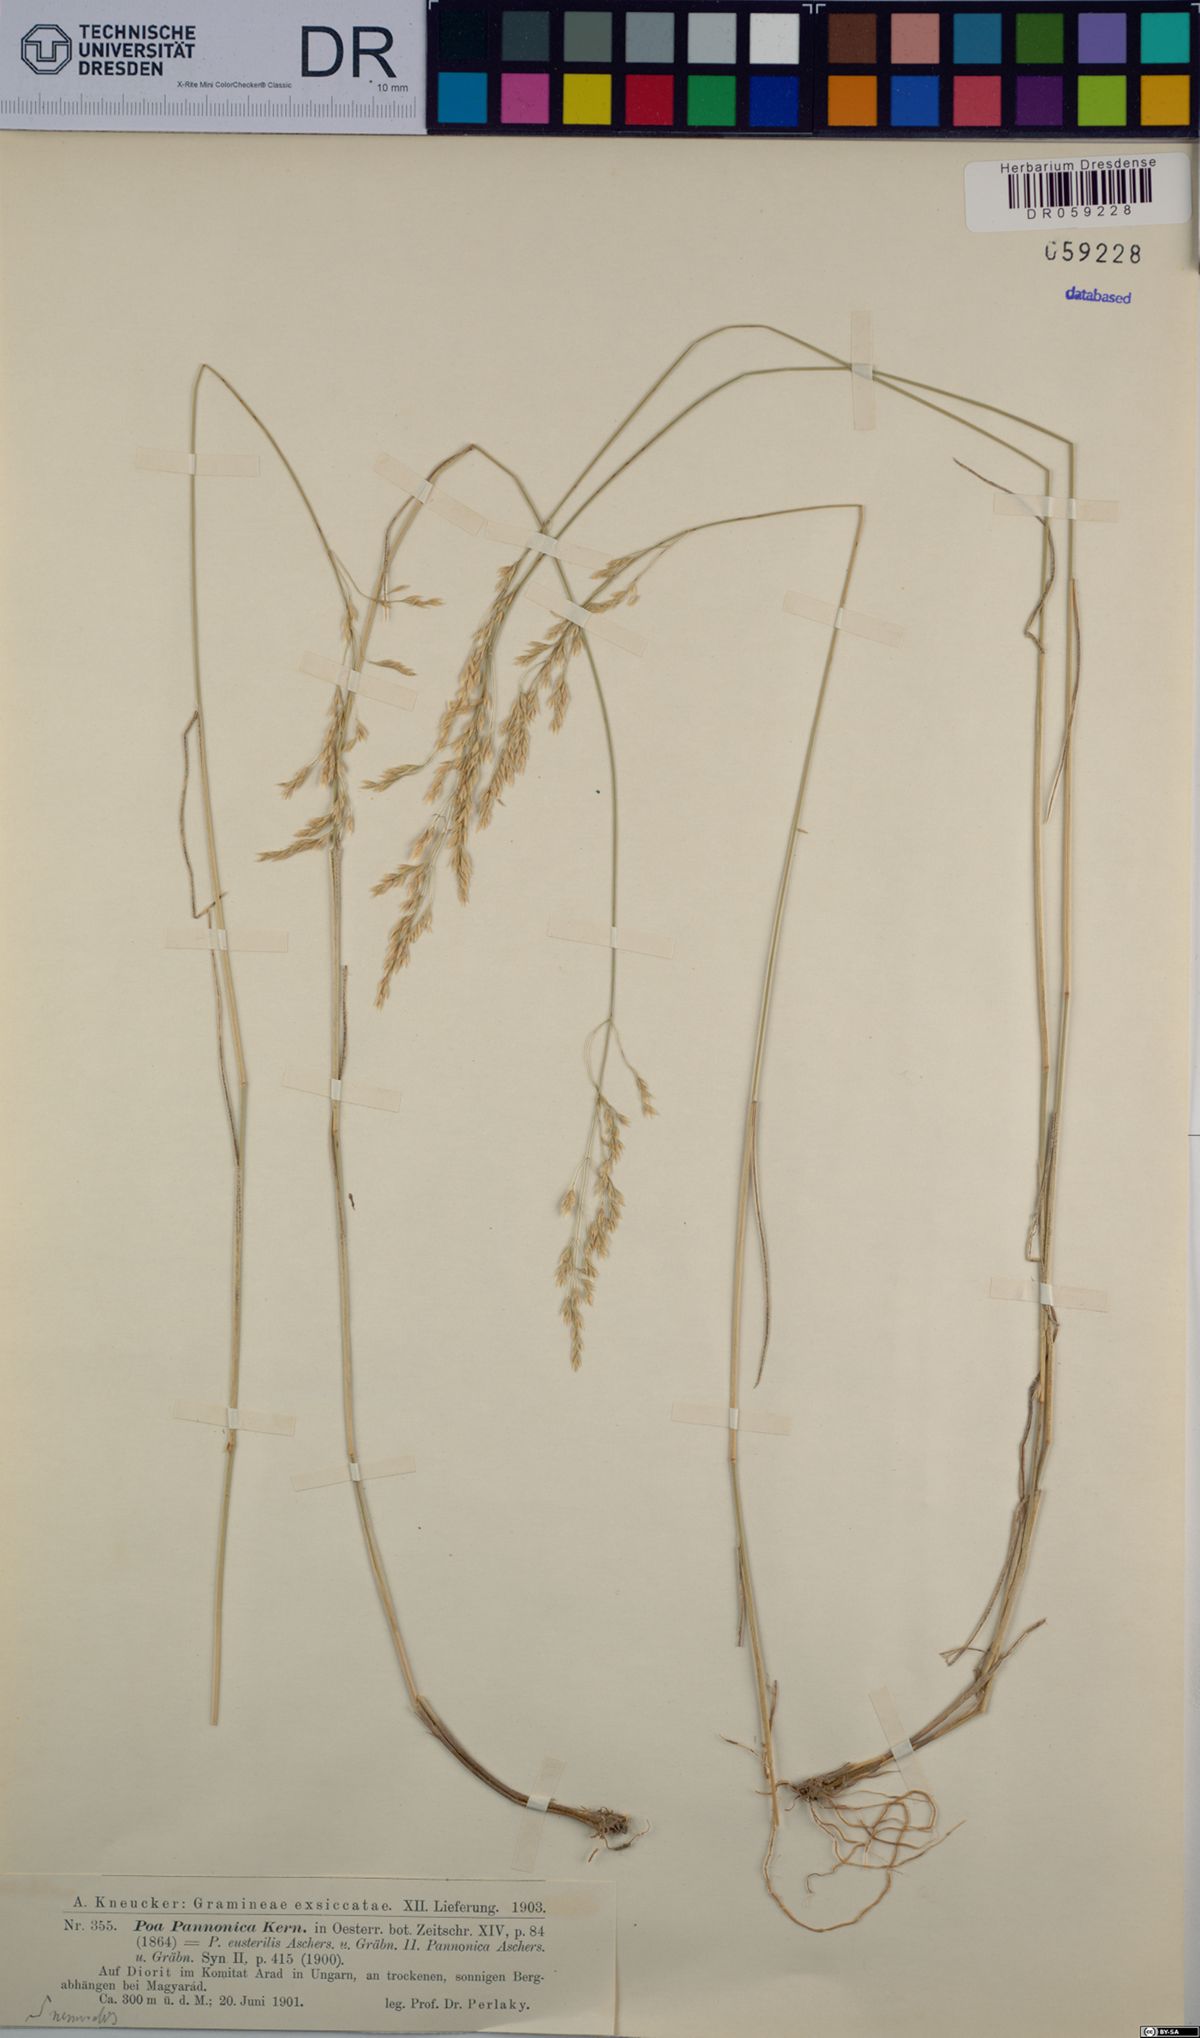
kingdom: Plantae
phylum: Tracheophyta
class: Liliopsida
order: Poales
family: Poaceae
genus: Poa
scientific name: Poa pannonica
